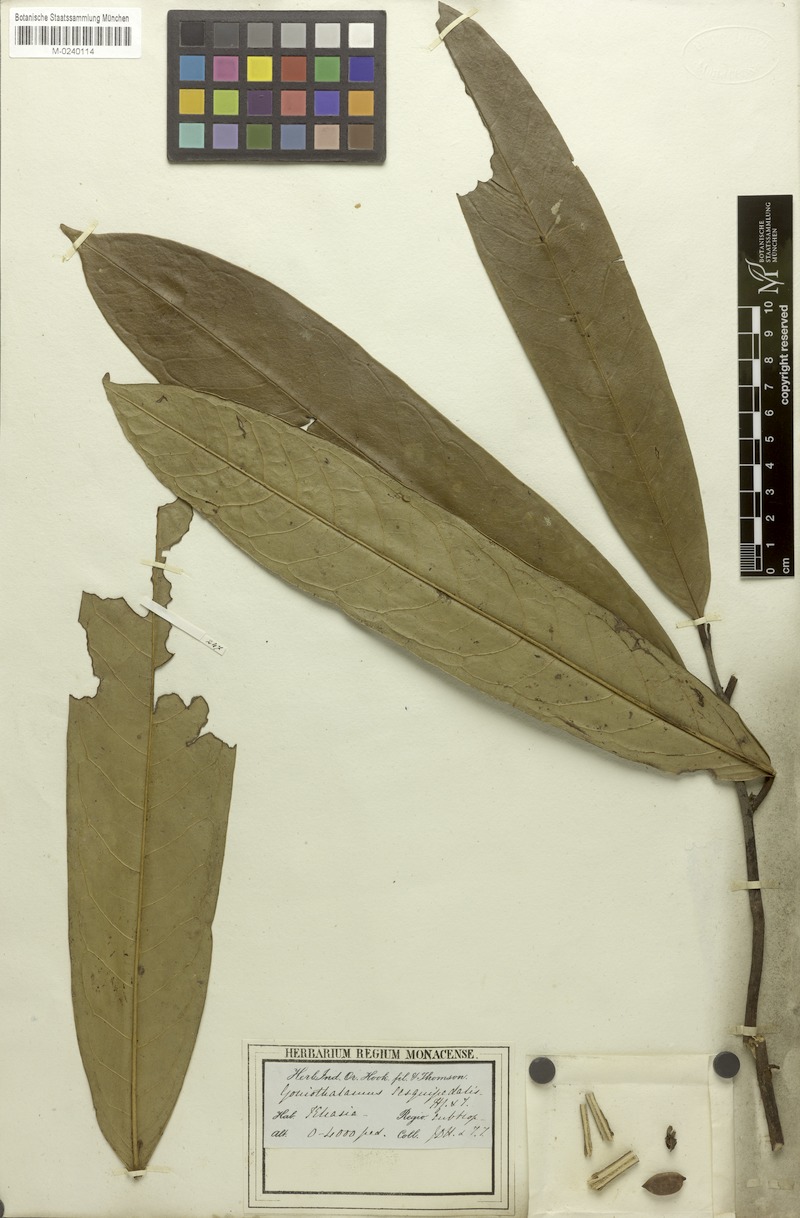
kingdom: Plantae
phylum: Tracheophyta
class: Magnoliopsida
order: Magnoliales
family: Annonaceae
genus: Goniothalamus
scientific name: Goniothalamus sesquipedalis
